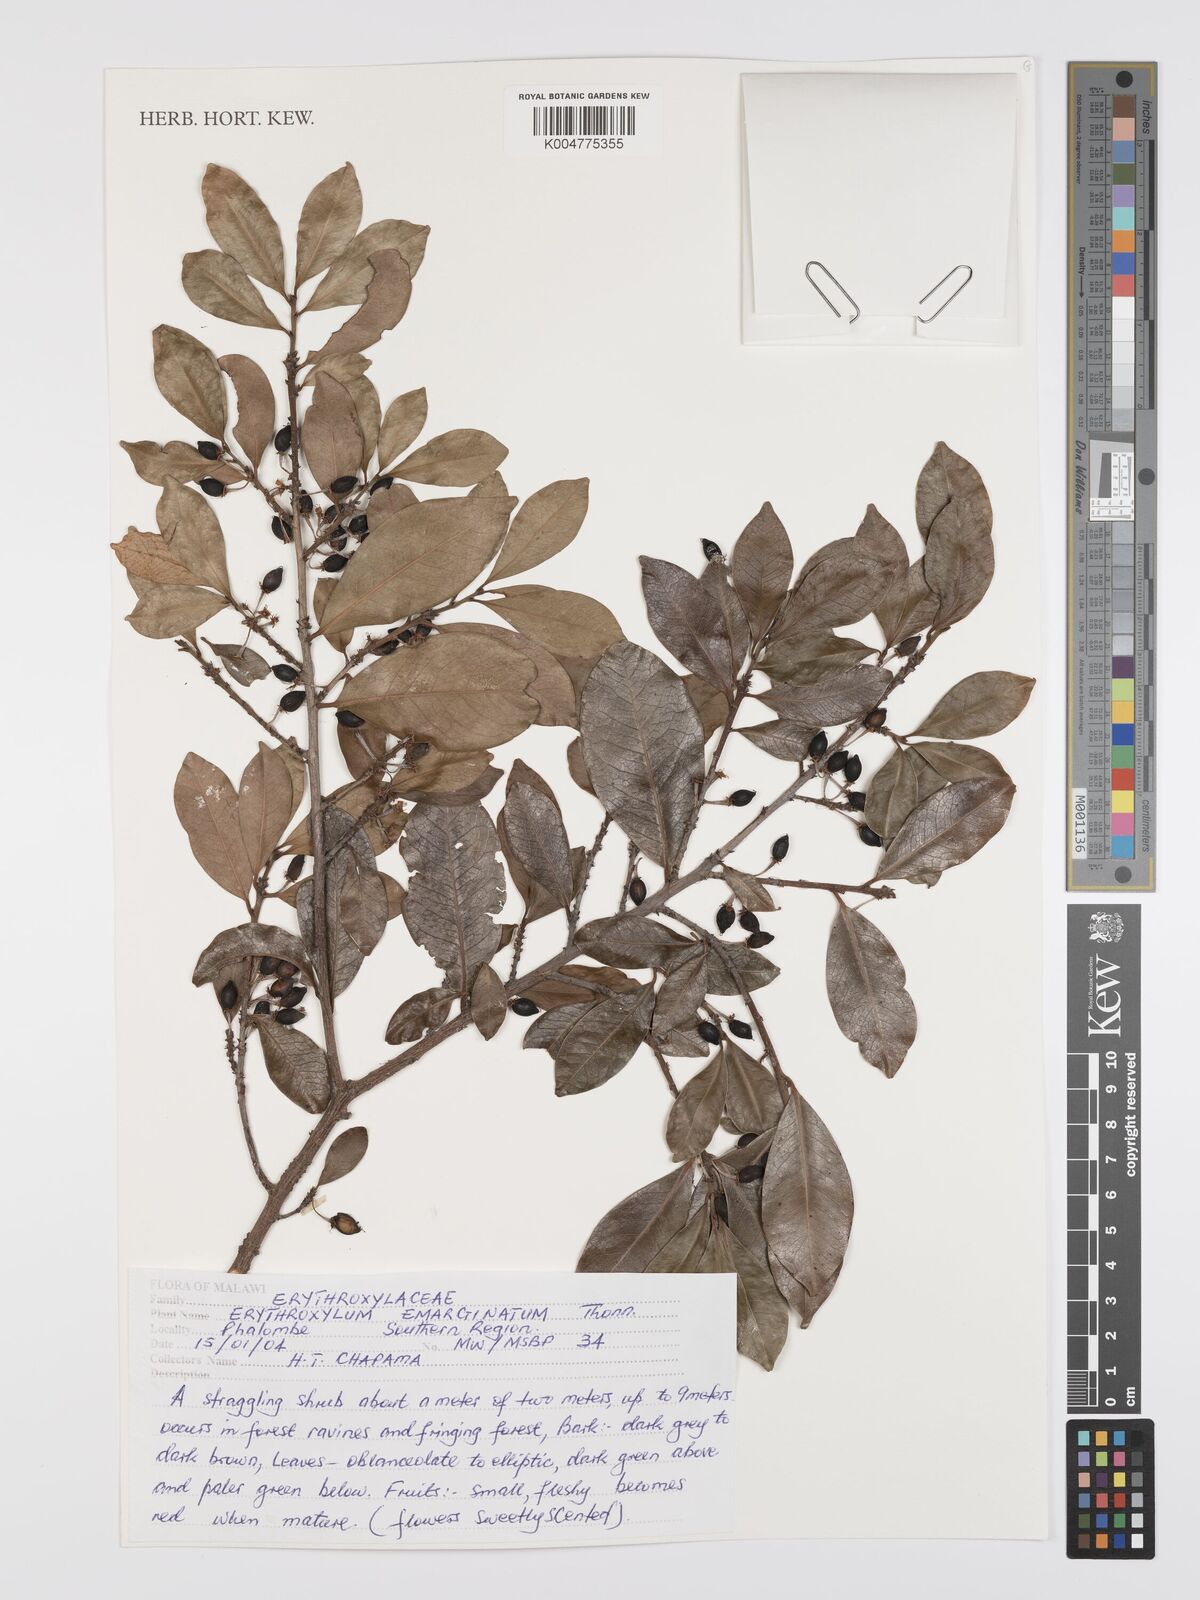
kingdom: Plantae
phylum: Tracheophyta
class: Magnoliopsida
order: Malpighiales
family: Erythroxylaceae
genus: Erythroxylum
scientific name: Erythroxylum emarginatum
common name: African coca-tree
